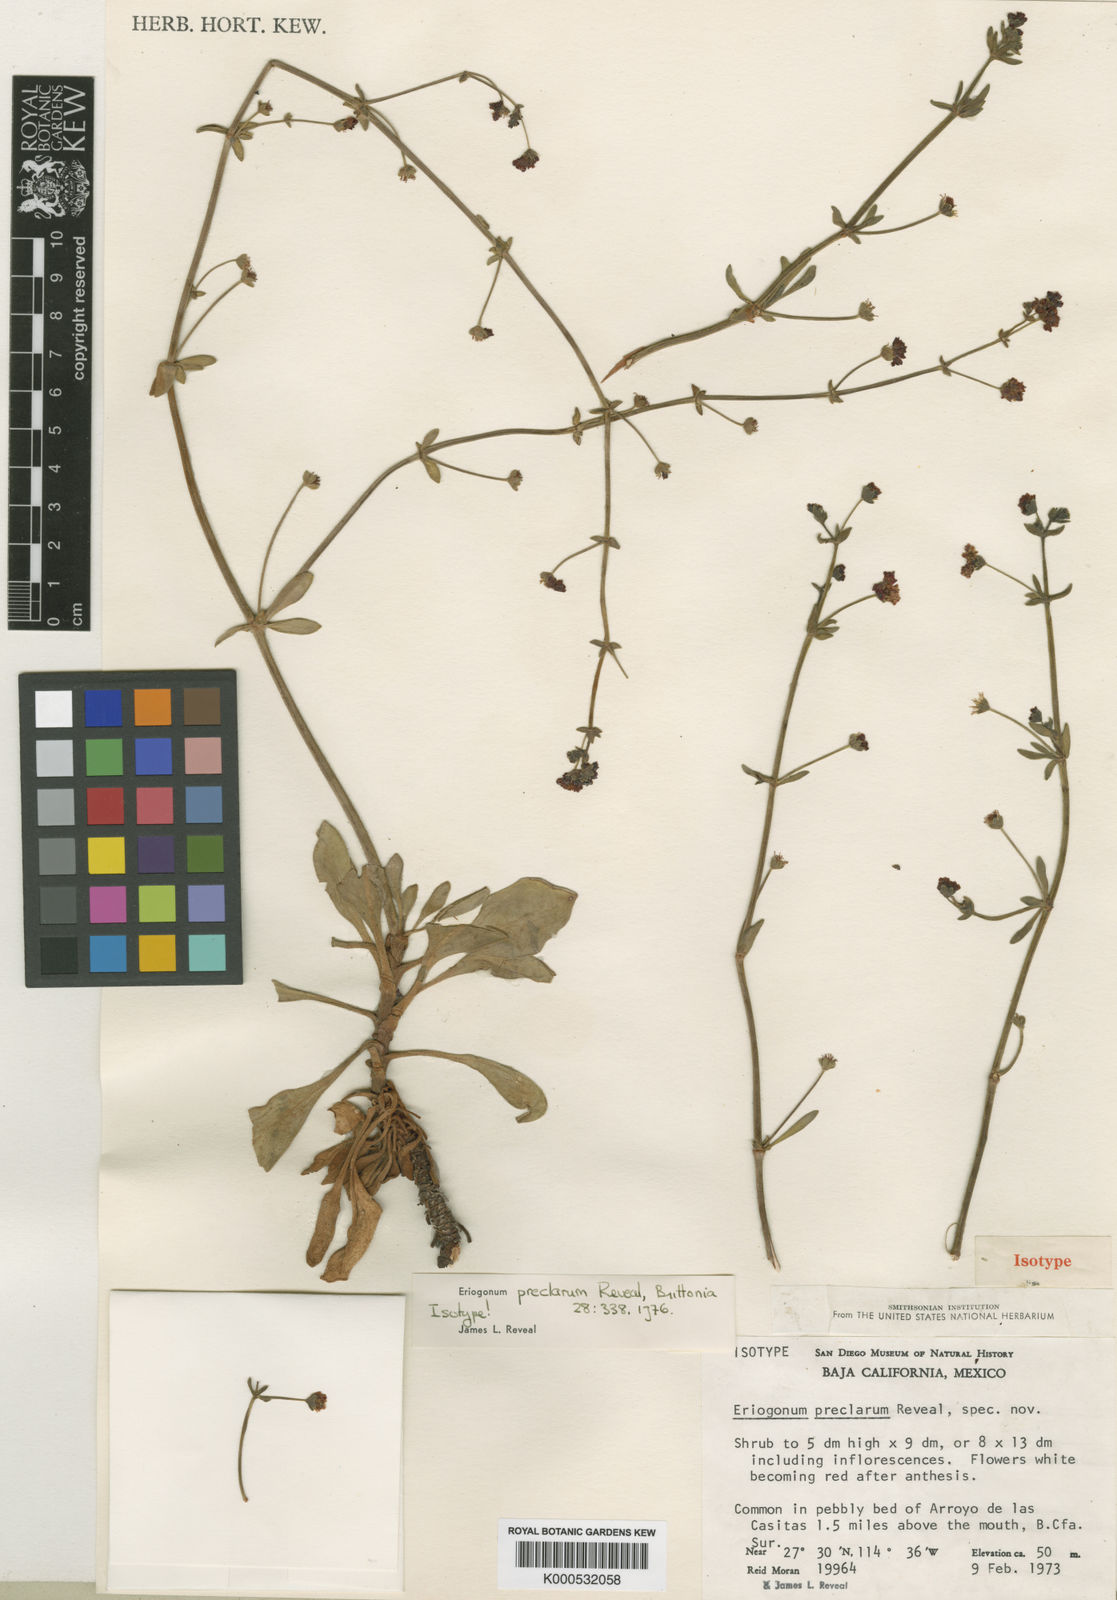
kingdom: Plantae
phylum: Tracheophyta
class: Magnoliopsida
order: Caryophyllales
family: Polygonaceae
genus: Eriogonum
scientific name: Eriogonum preclarum
